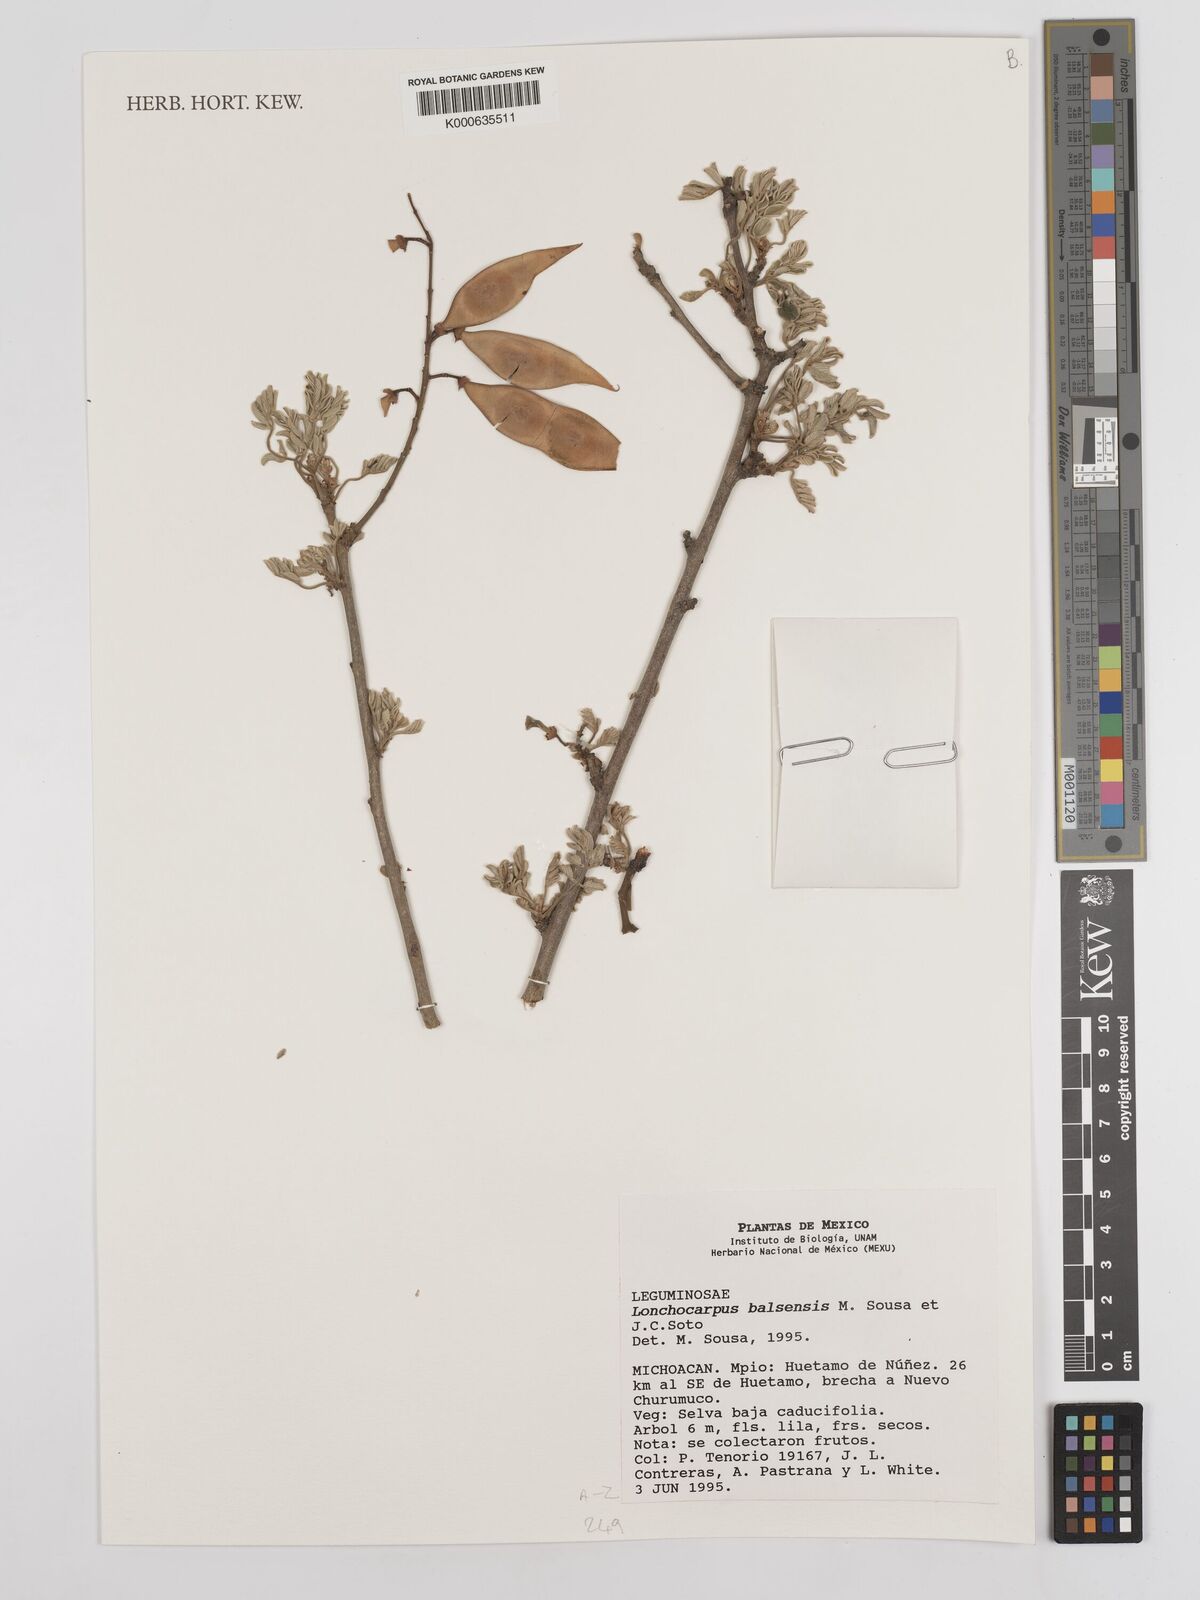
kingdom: Plantae
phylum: Tracheophyta
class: Magnoliopsida
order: Fabales
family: Fabaceae
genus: Lonchocarpus
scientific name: Lonchocarpus balsensis
